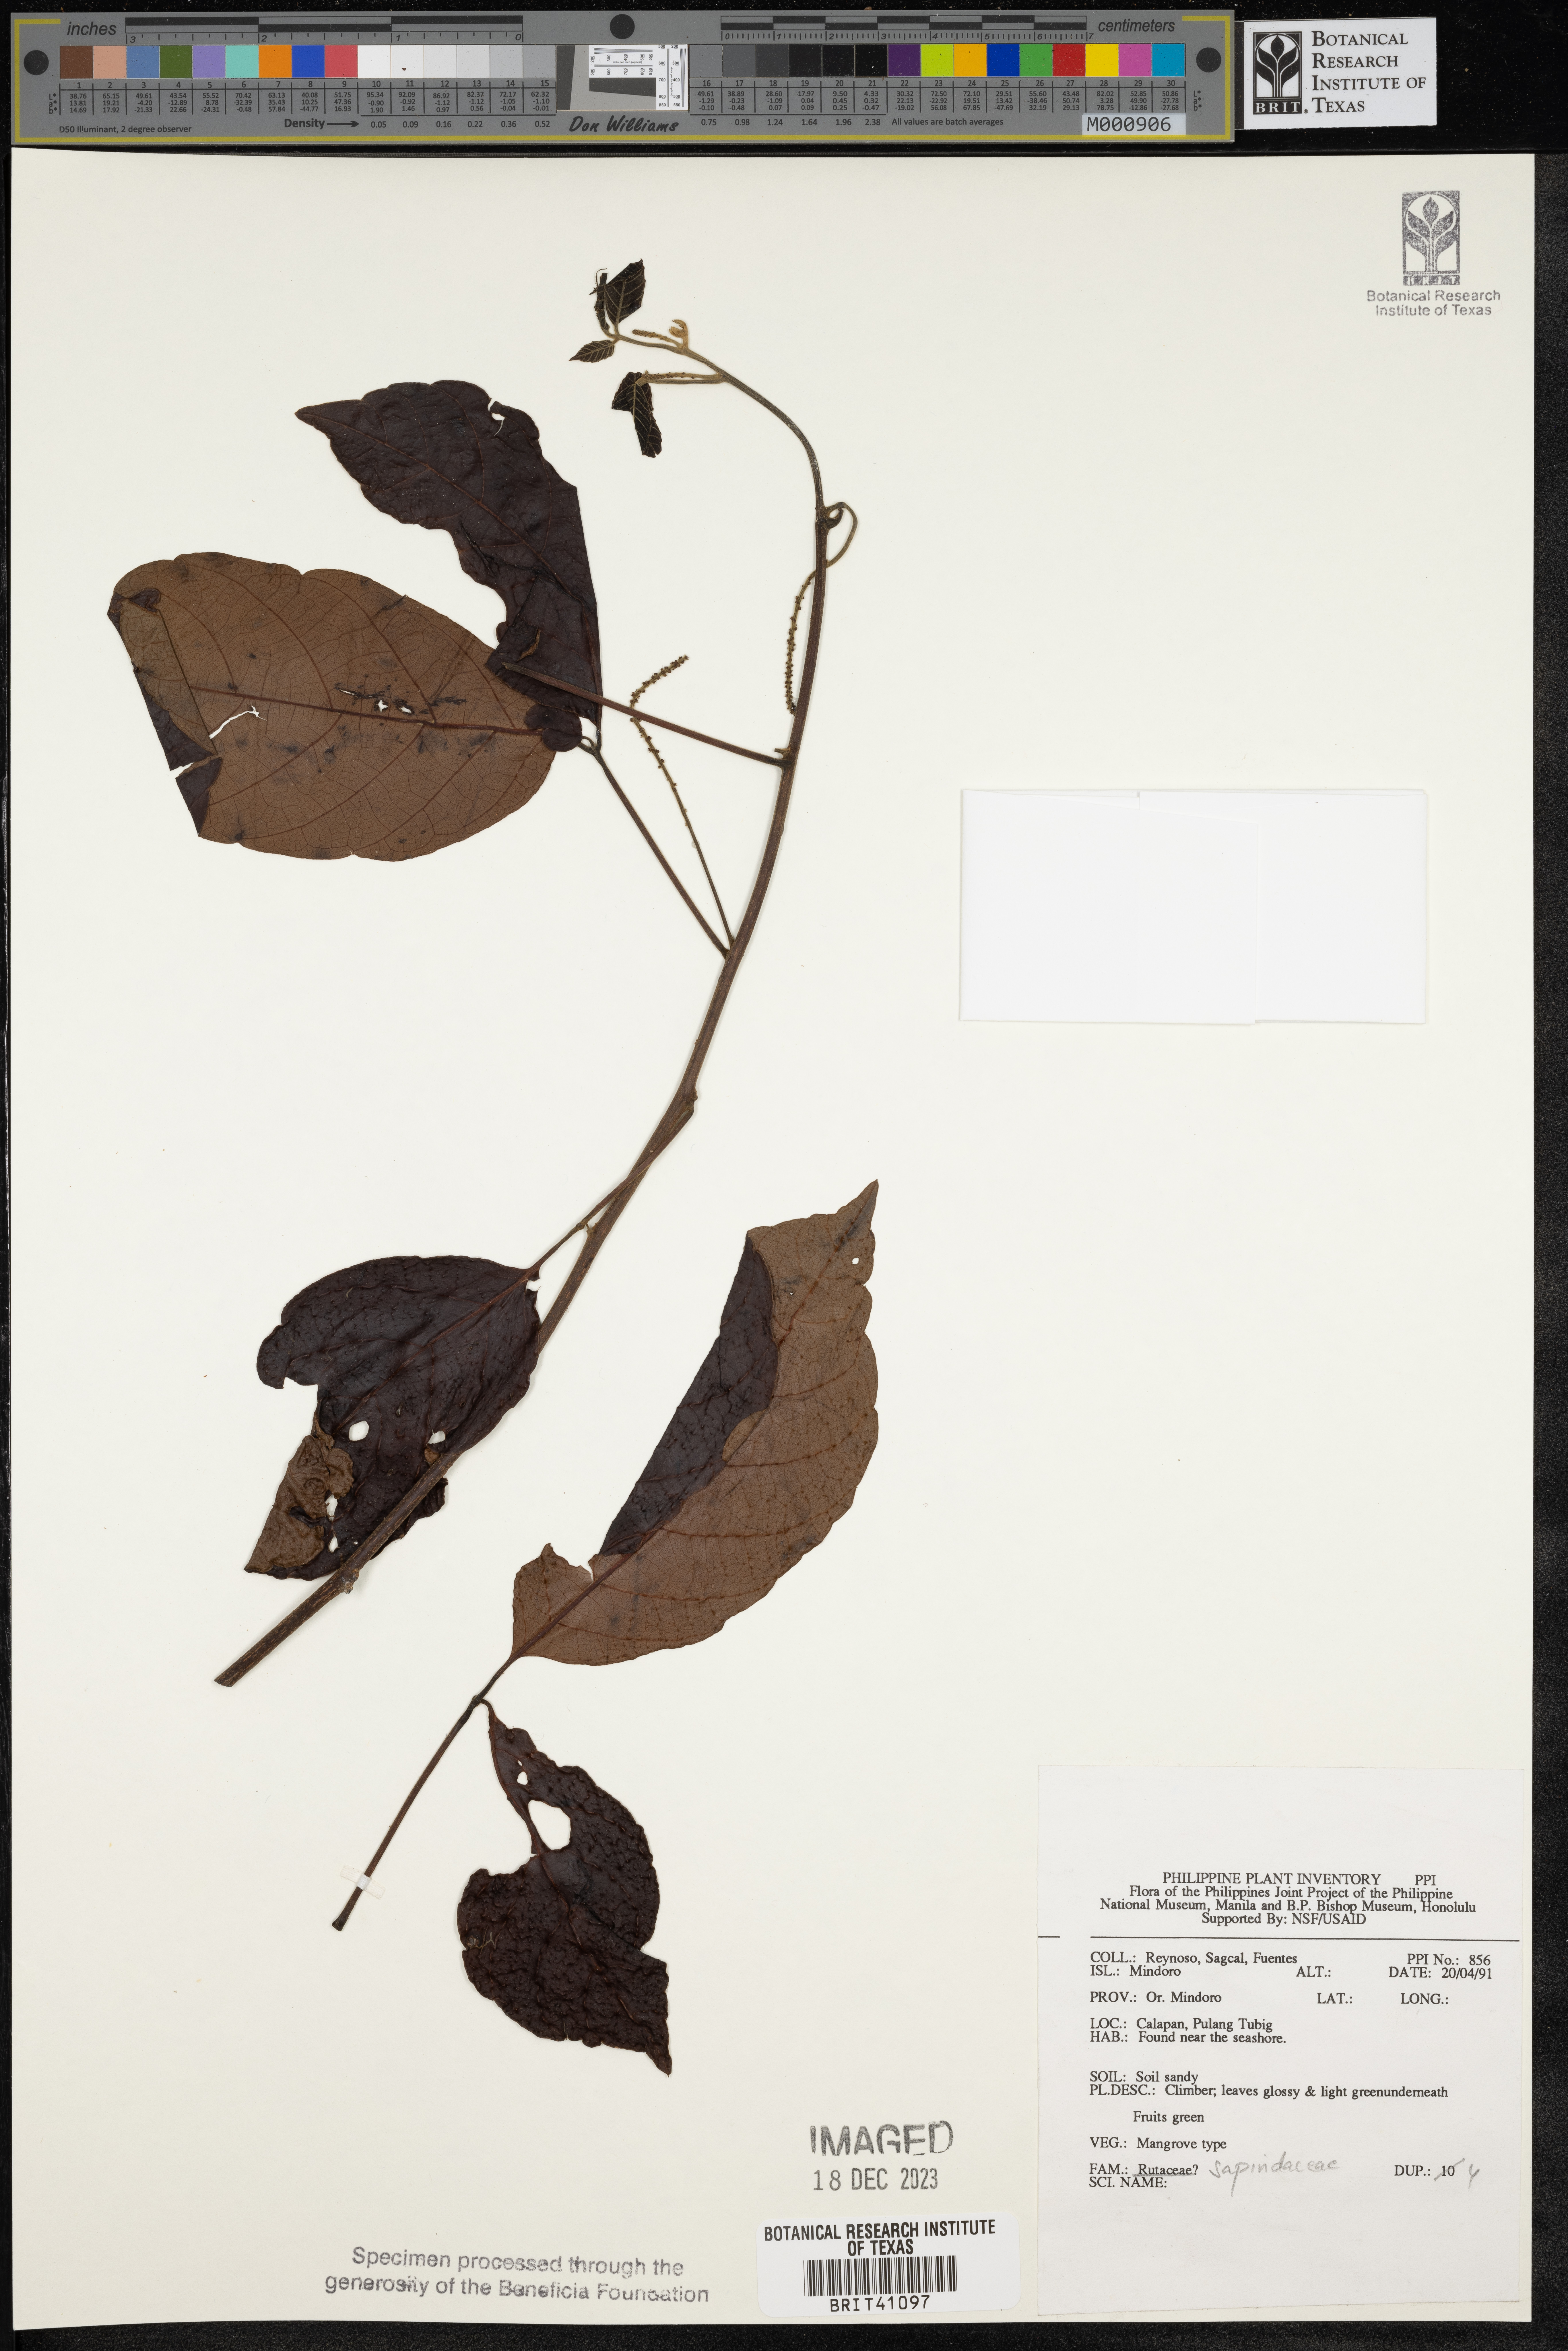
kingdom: Plantae
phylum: Tracheophyta
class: Magnoliopsida
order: Sapindales
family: Sapindaceae
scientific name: Sapindaceae
